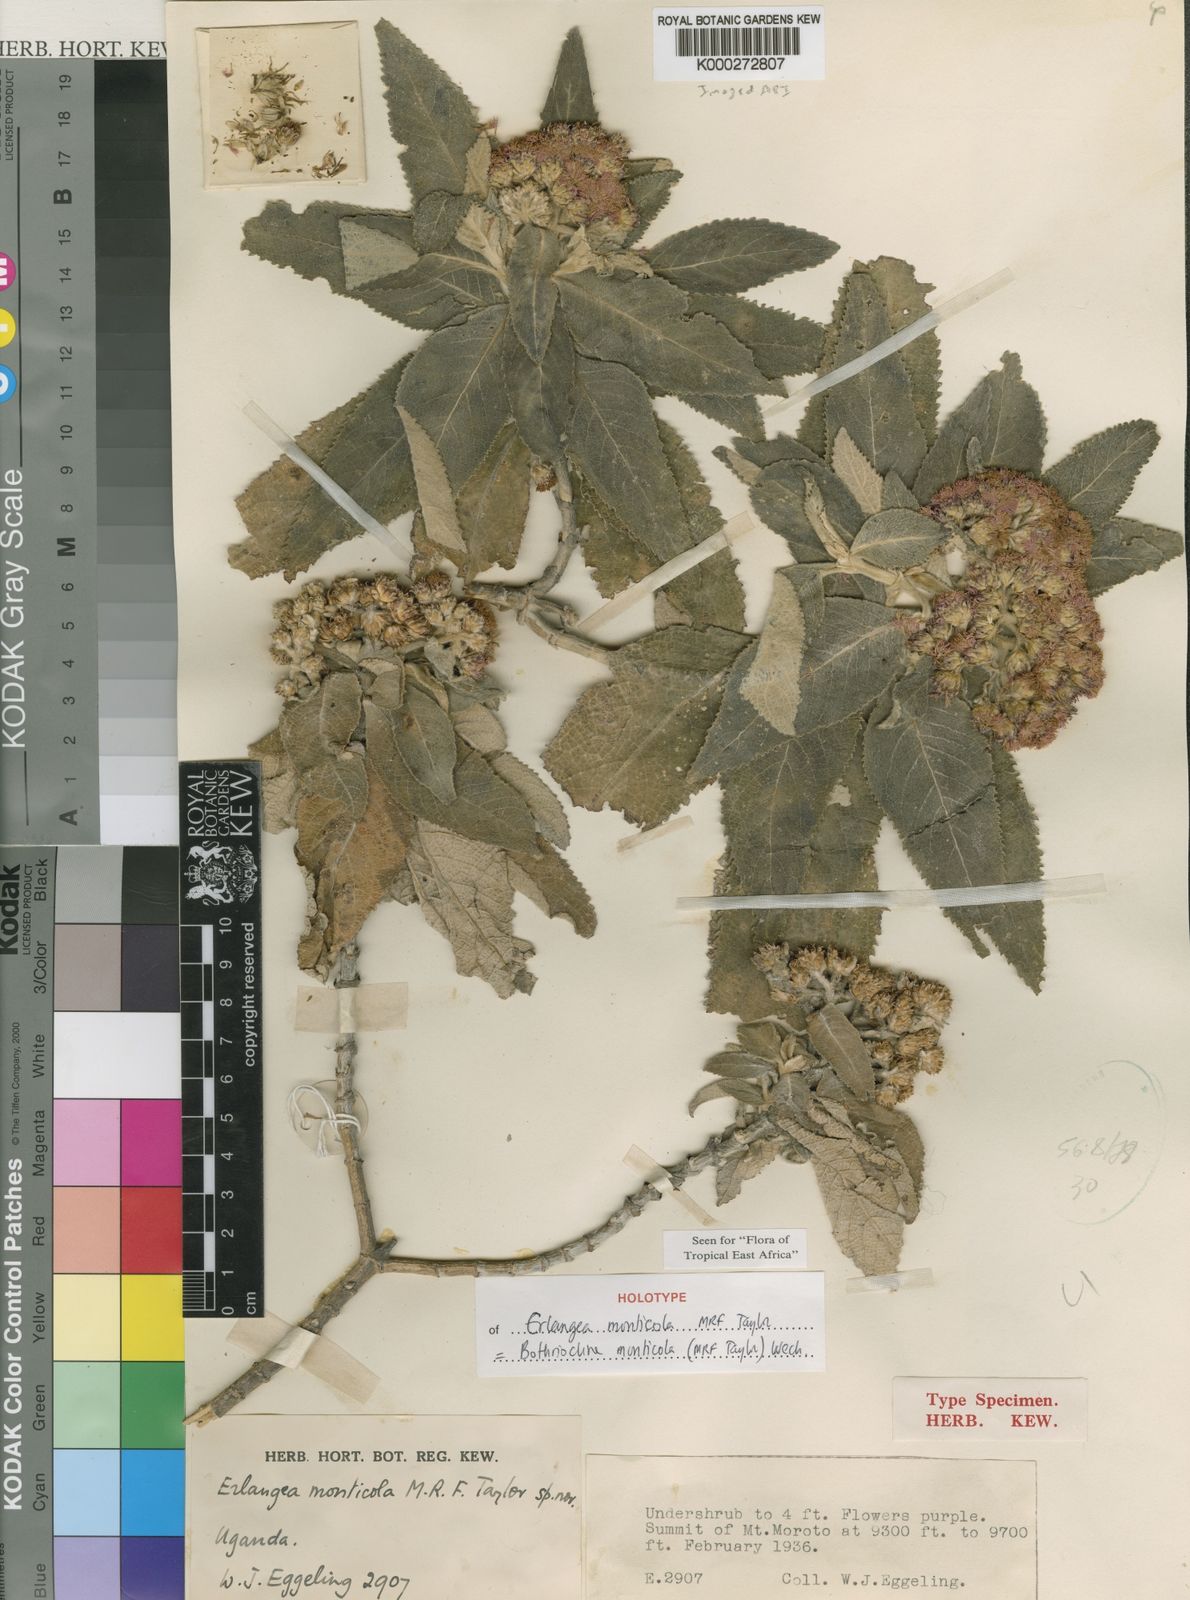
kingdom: Plantae
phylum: Tracheophyta
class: Magnoliopsida
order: Asterales
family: Asteraceae
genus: Bothriocline
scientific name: Bothriocline monticola
